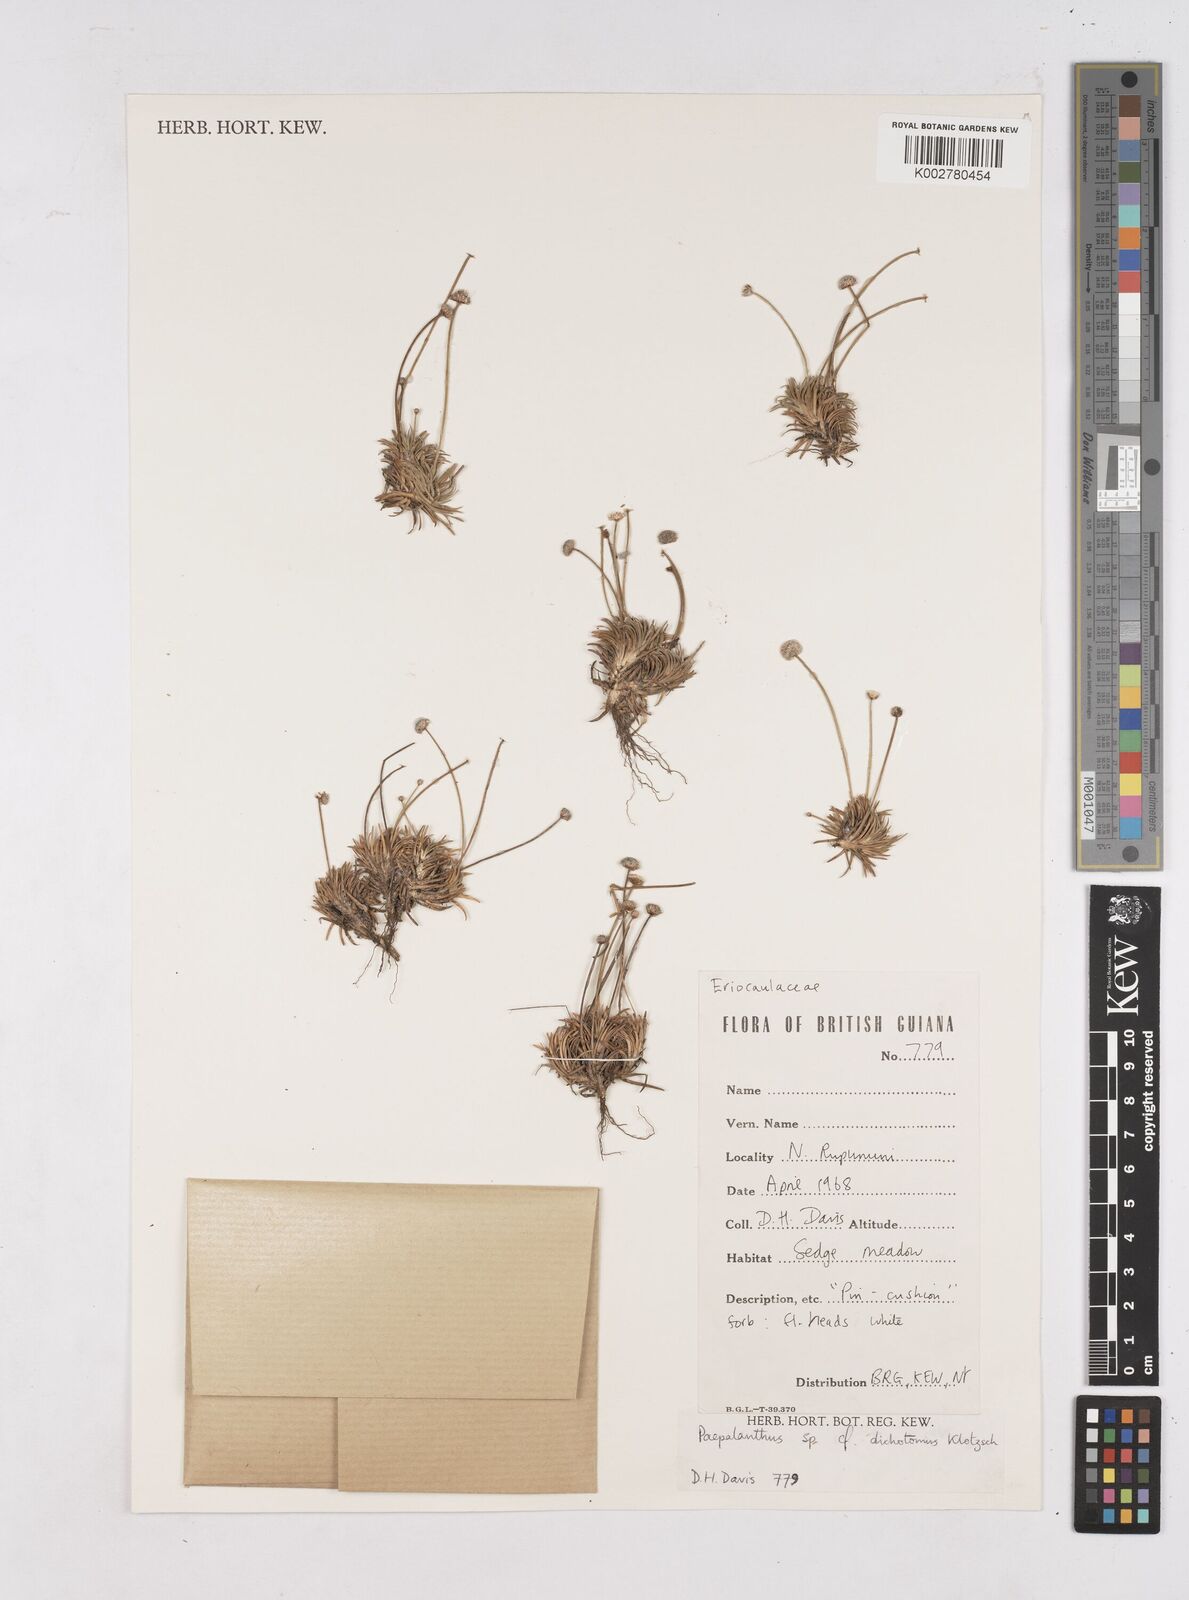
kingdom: Plantae
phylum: Tracheophyta
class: Liliopsida
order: Poales
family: Eriocaulaceae
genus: Paepalanthus
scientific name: Paepalanthus dichotomus
